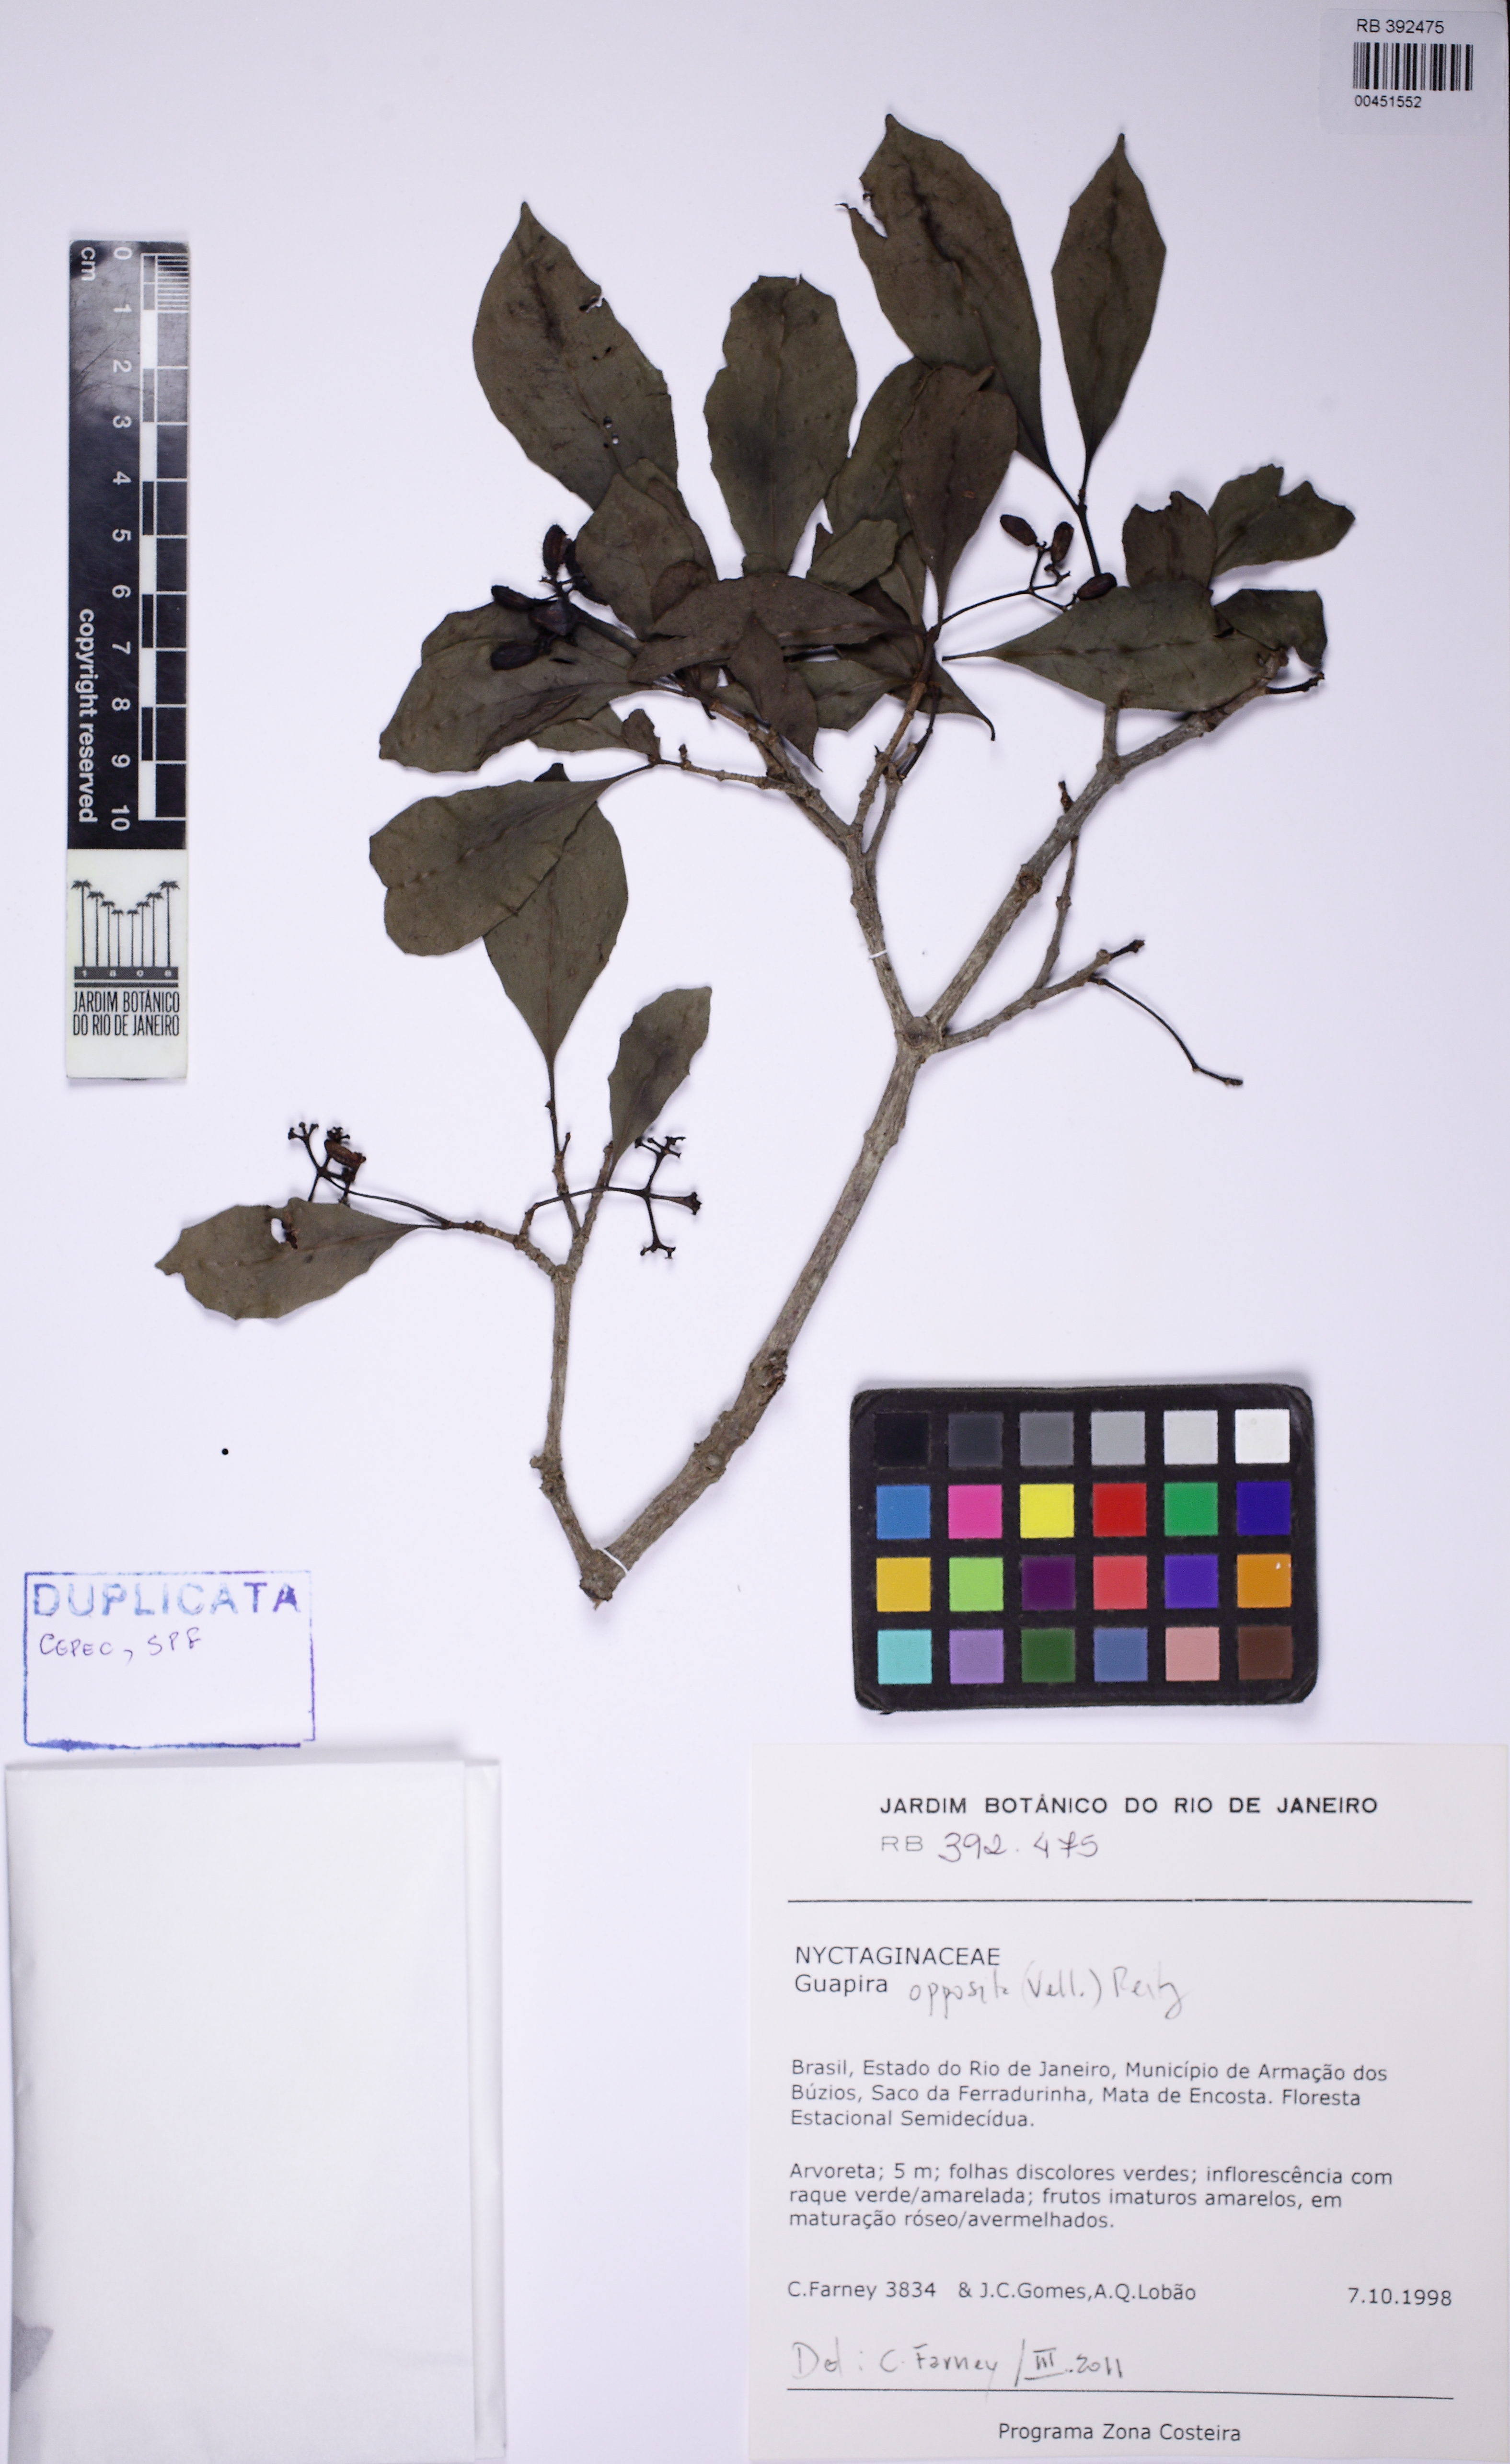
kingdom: Plantae
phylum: Tracheophyta
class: Magnoliopsida
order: Caryophyllales
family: Nyctaginaceae
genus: Guapira
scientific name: Guapira opposita
